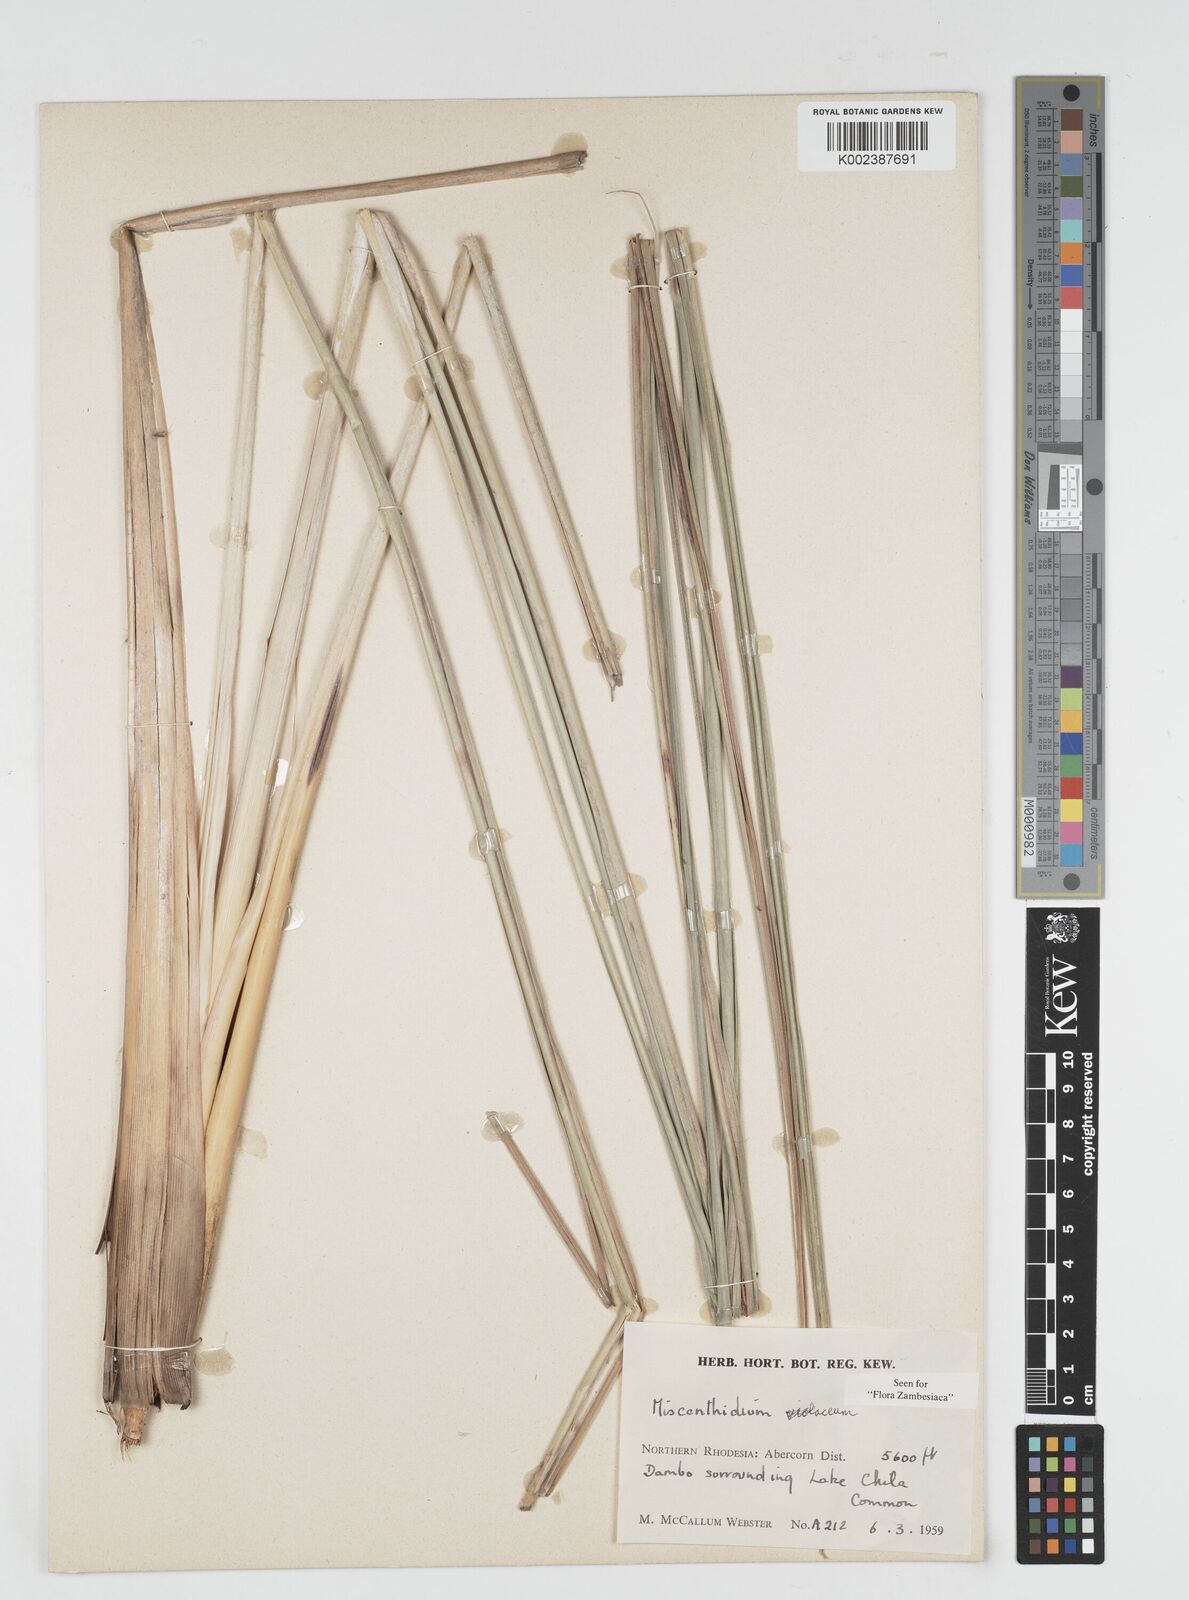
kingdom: Plantae
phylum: Tracheophyta
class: Liliopsida
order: Poales
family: Poaceae
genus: Miscanthidium
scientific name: Miscanthidium violaceum
